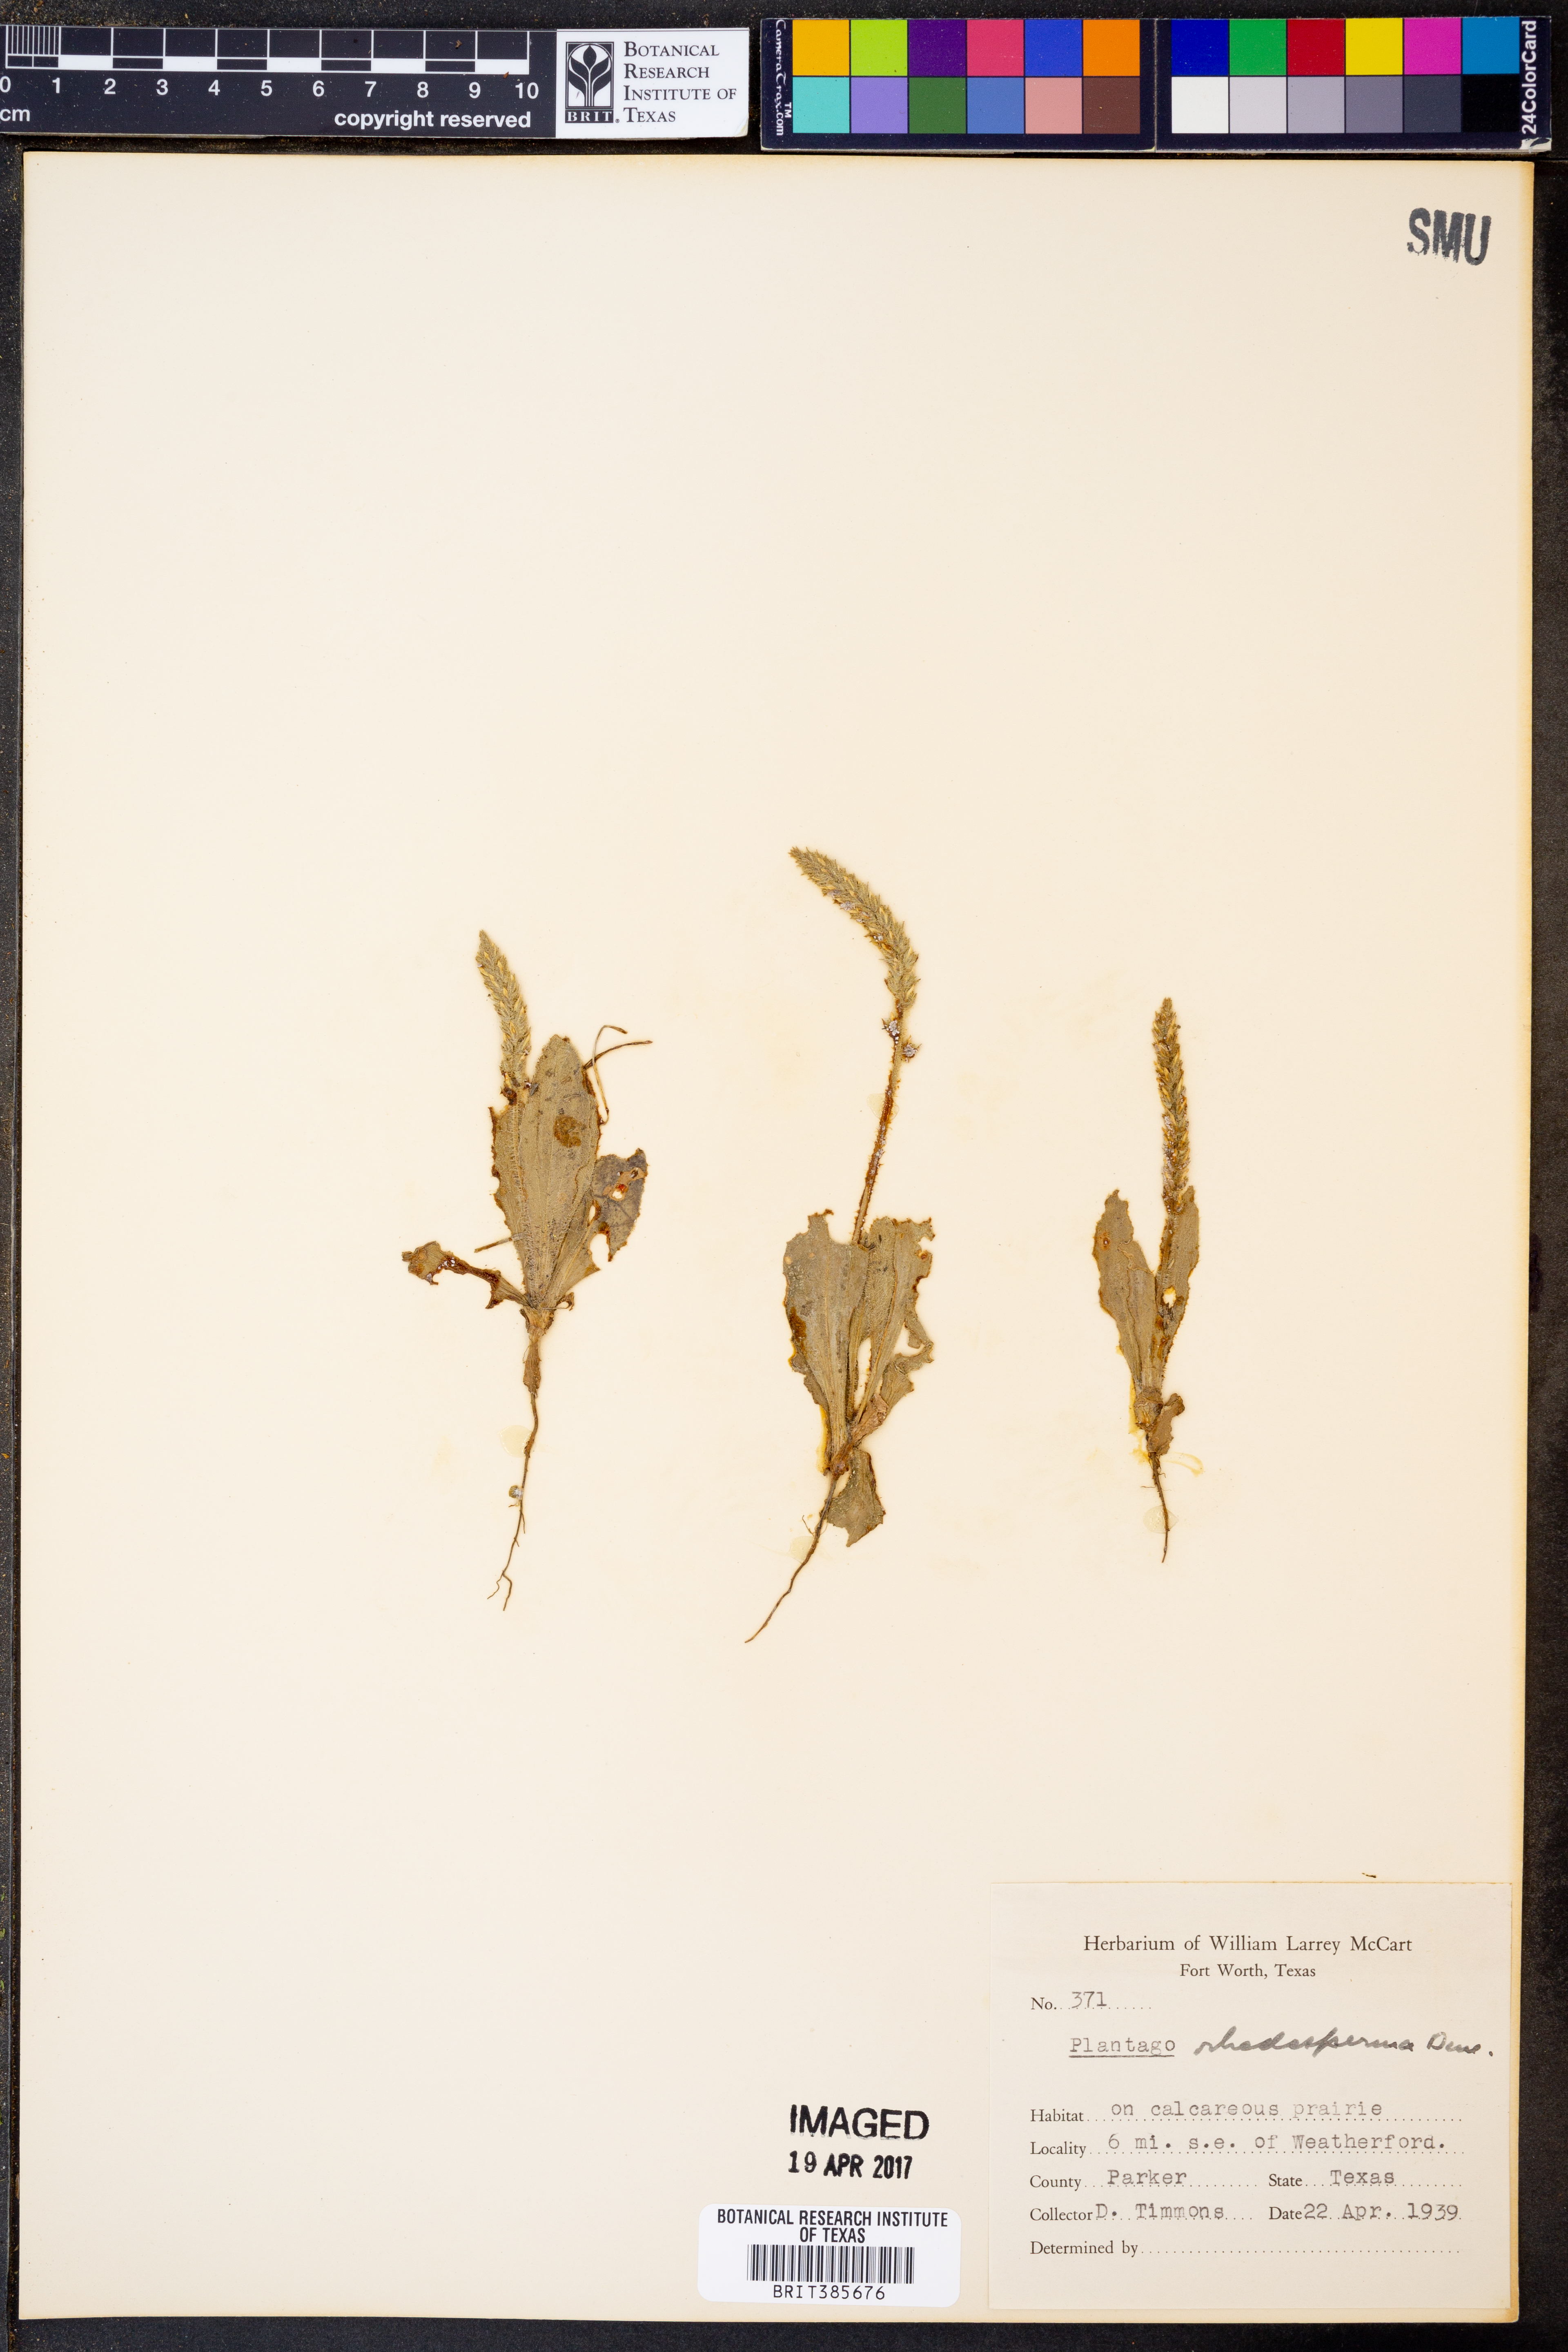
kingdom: Plantae
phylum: Tracheophyta
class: Magnoliopsida
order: Lamiales
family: Plantaginaceae
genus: Plantago
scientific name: Plantago rhodosperma
